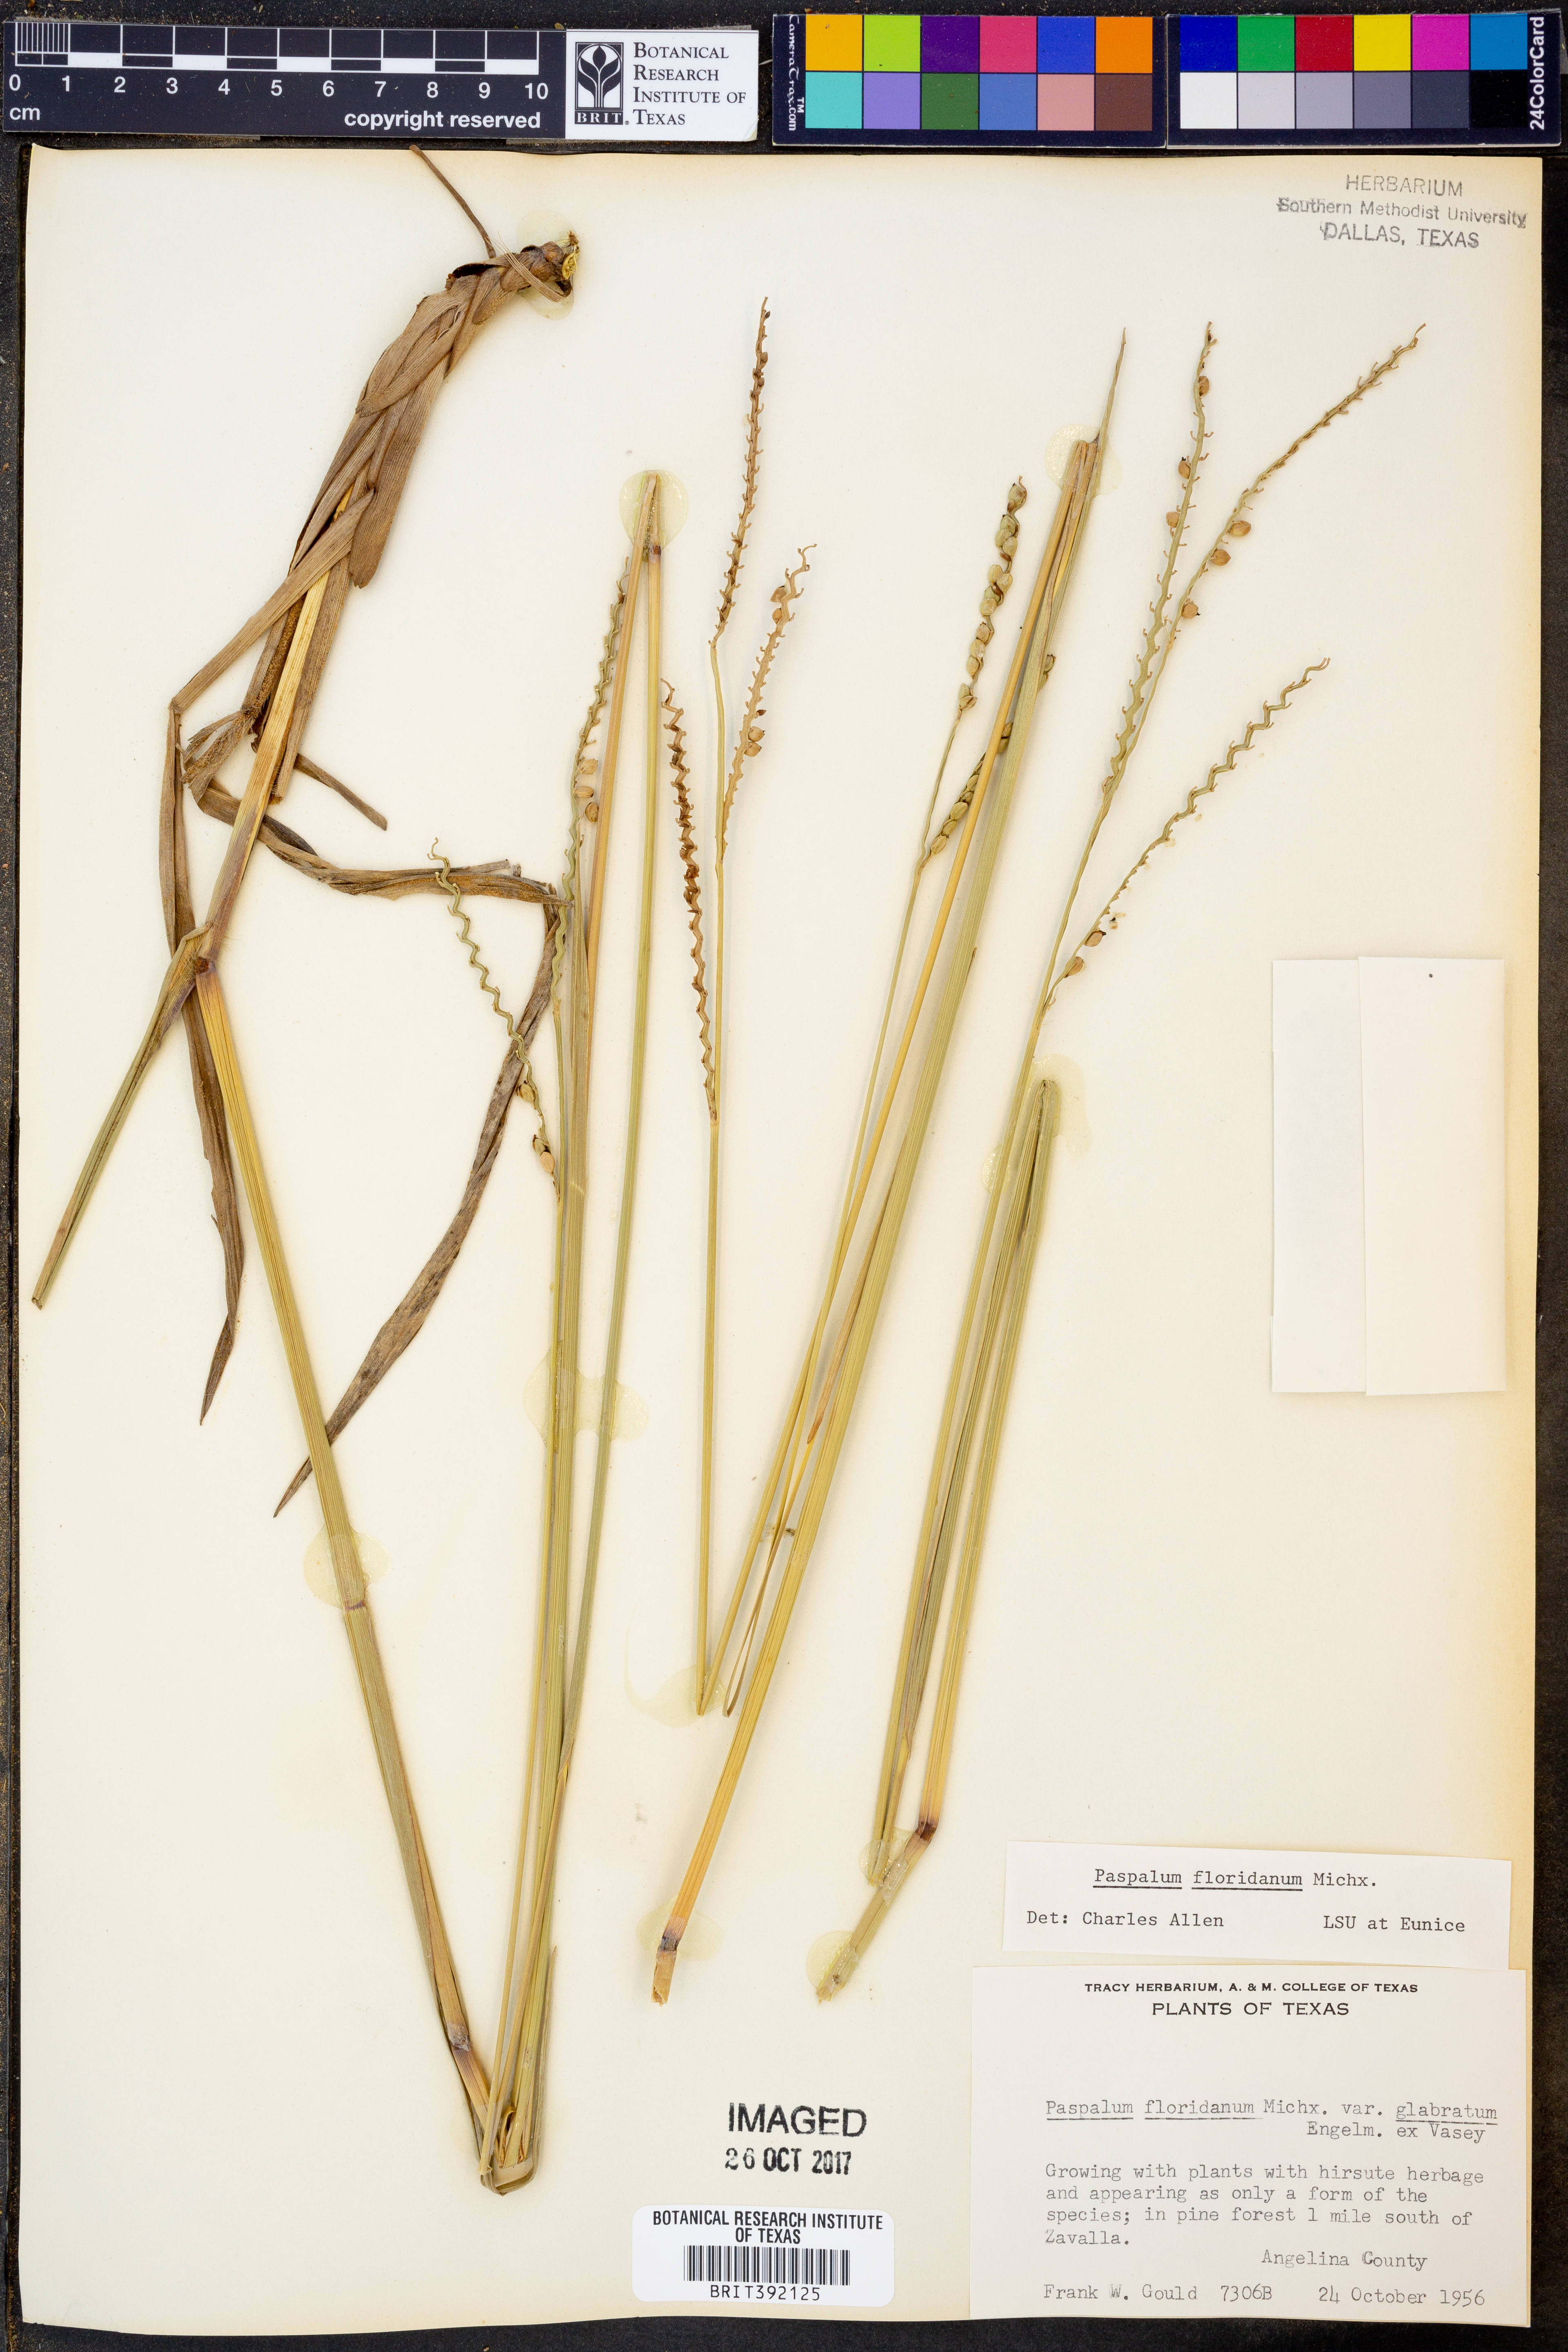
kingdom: Plantae
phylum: Tracheophyta
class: Liliopsida
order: Poales
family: Poaceae
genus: Paspalum
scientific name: Paspalum floridanum
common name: Florida paspalum
